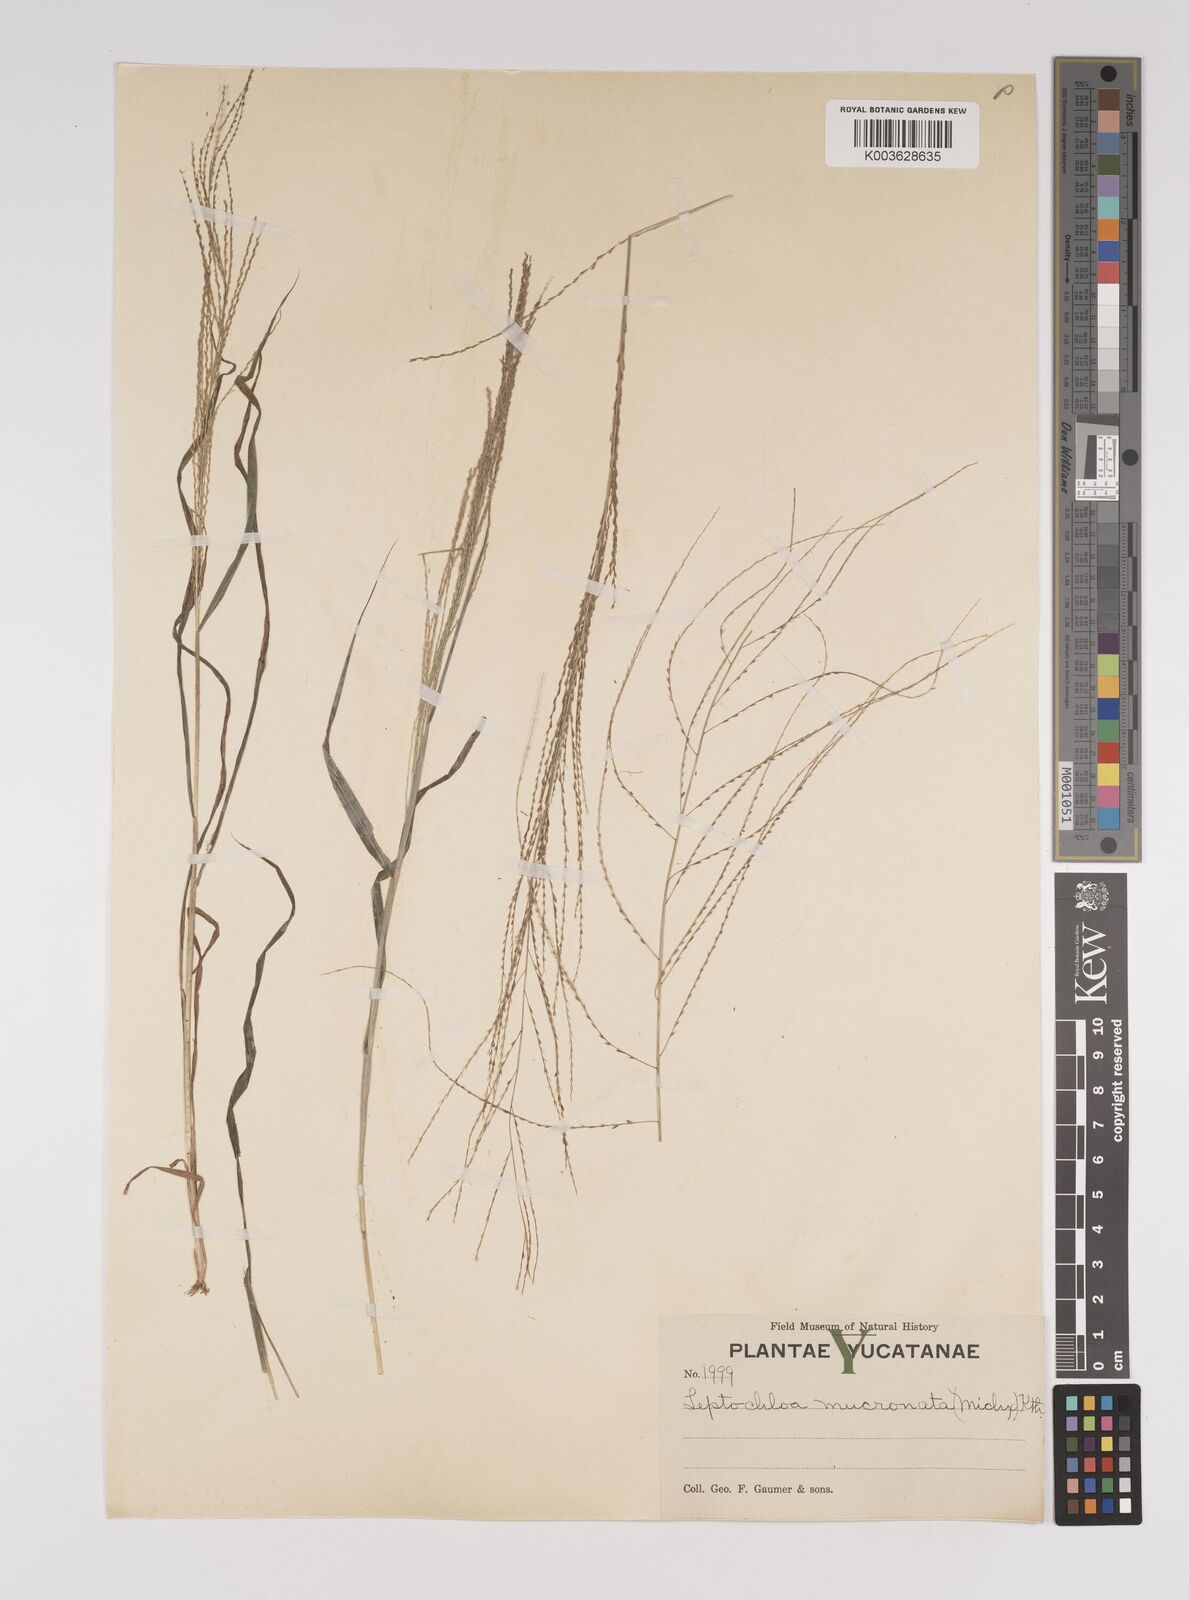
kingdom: Plantae
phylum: Tracheophyta
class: Liliopsida
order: Poales
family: Poaceae
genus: Leptochloa
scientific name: Leptochloa panicea
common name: Mucronate sprangletop
